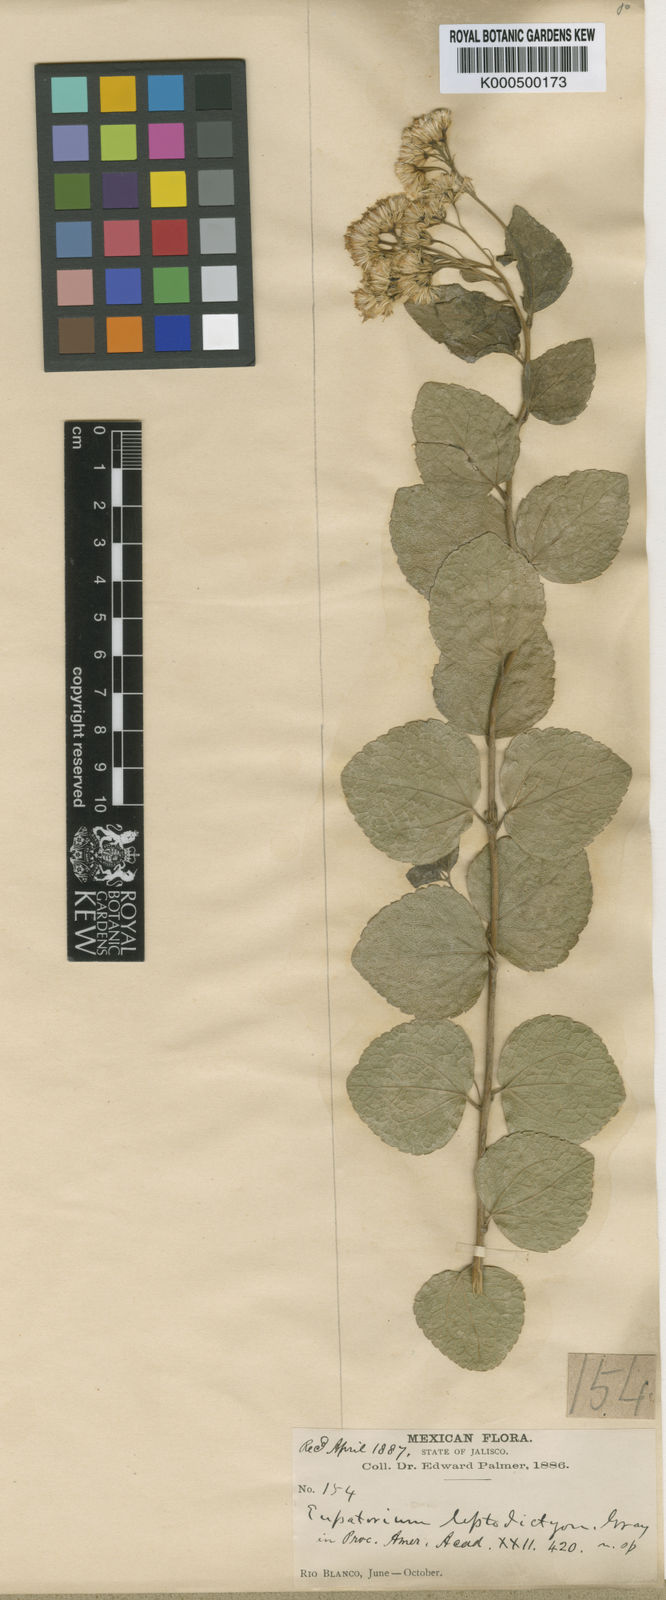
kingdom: Plantae
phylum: Tracheophyta
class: Magnoliopsida
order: Asterales
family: Asteraceae
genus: Ageratina
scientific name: Ageratina leptodictyon
